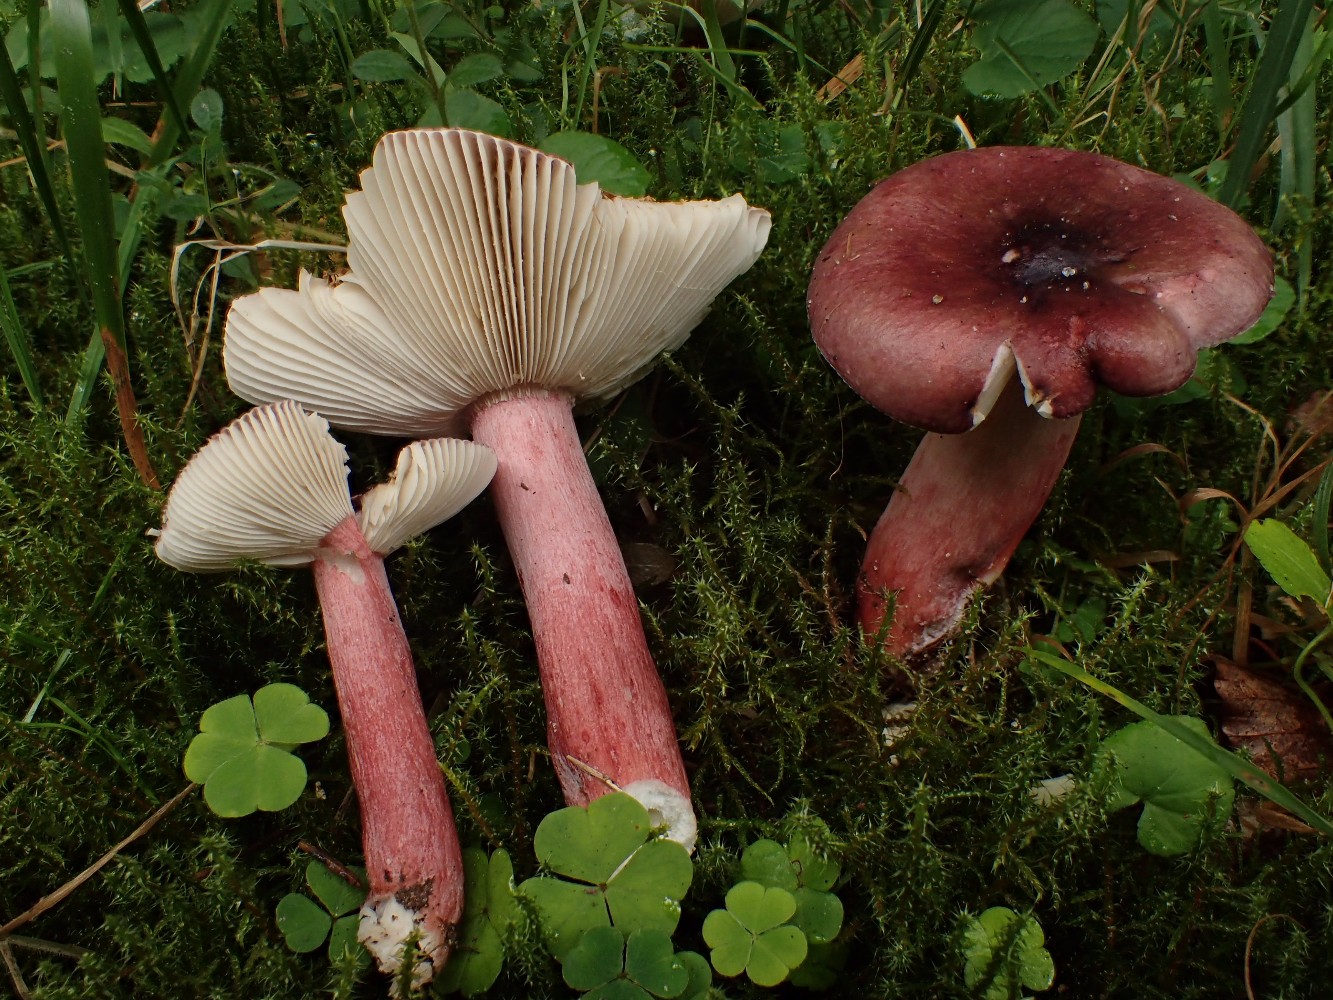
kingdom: Fungi
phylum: Basidiomycota
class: Agaricomycetes
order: Russulales
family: Russulaceae
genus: Russula
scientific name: Russula queletii
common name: Quélets skørhat
